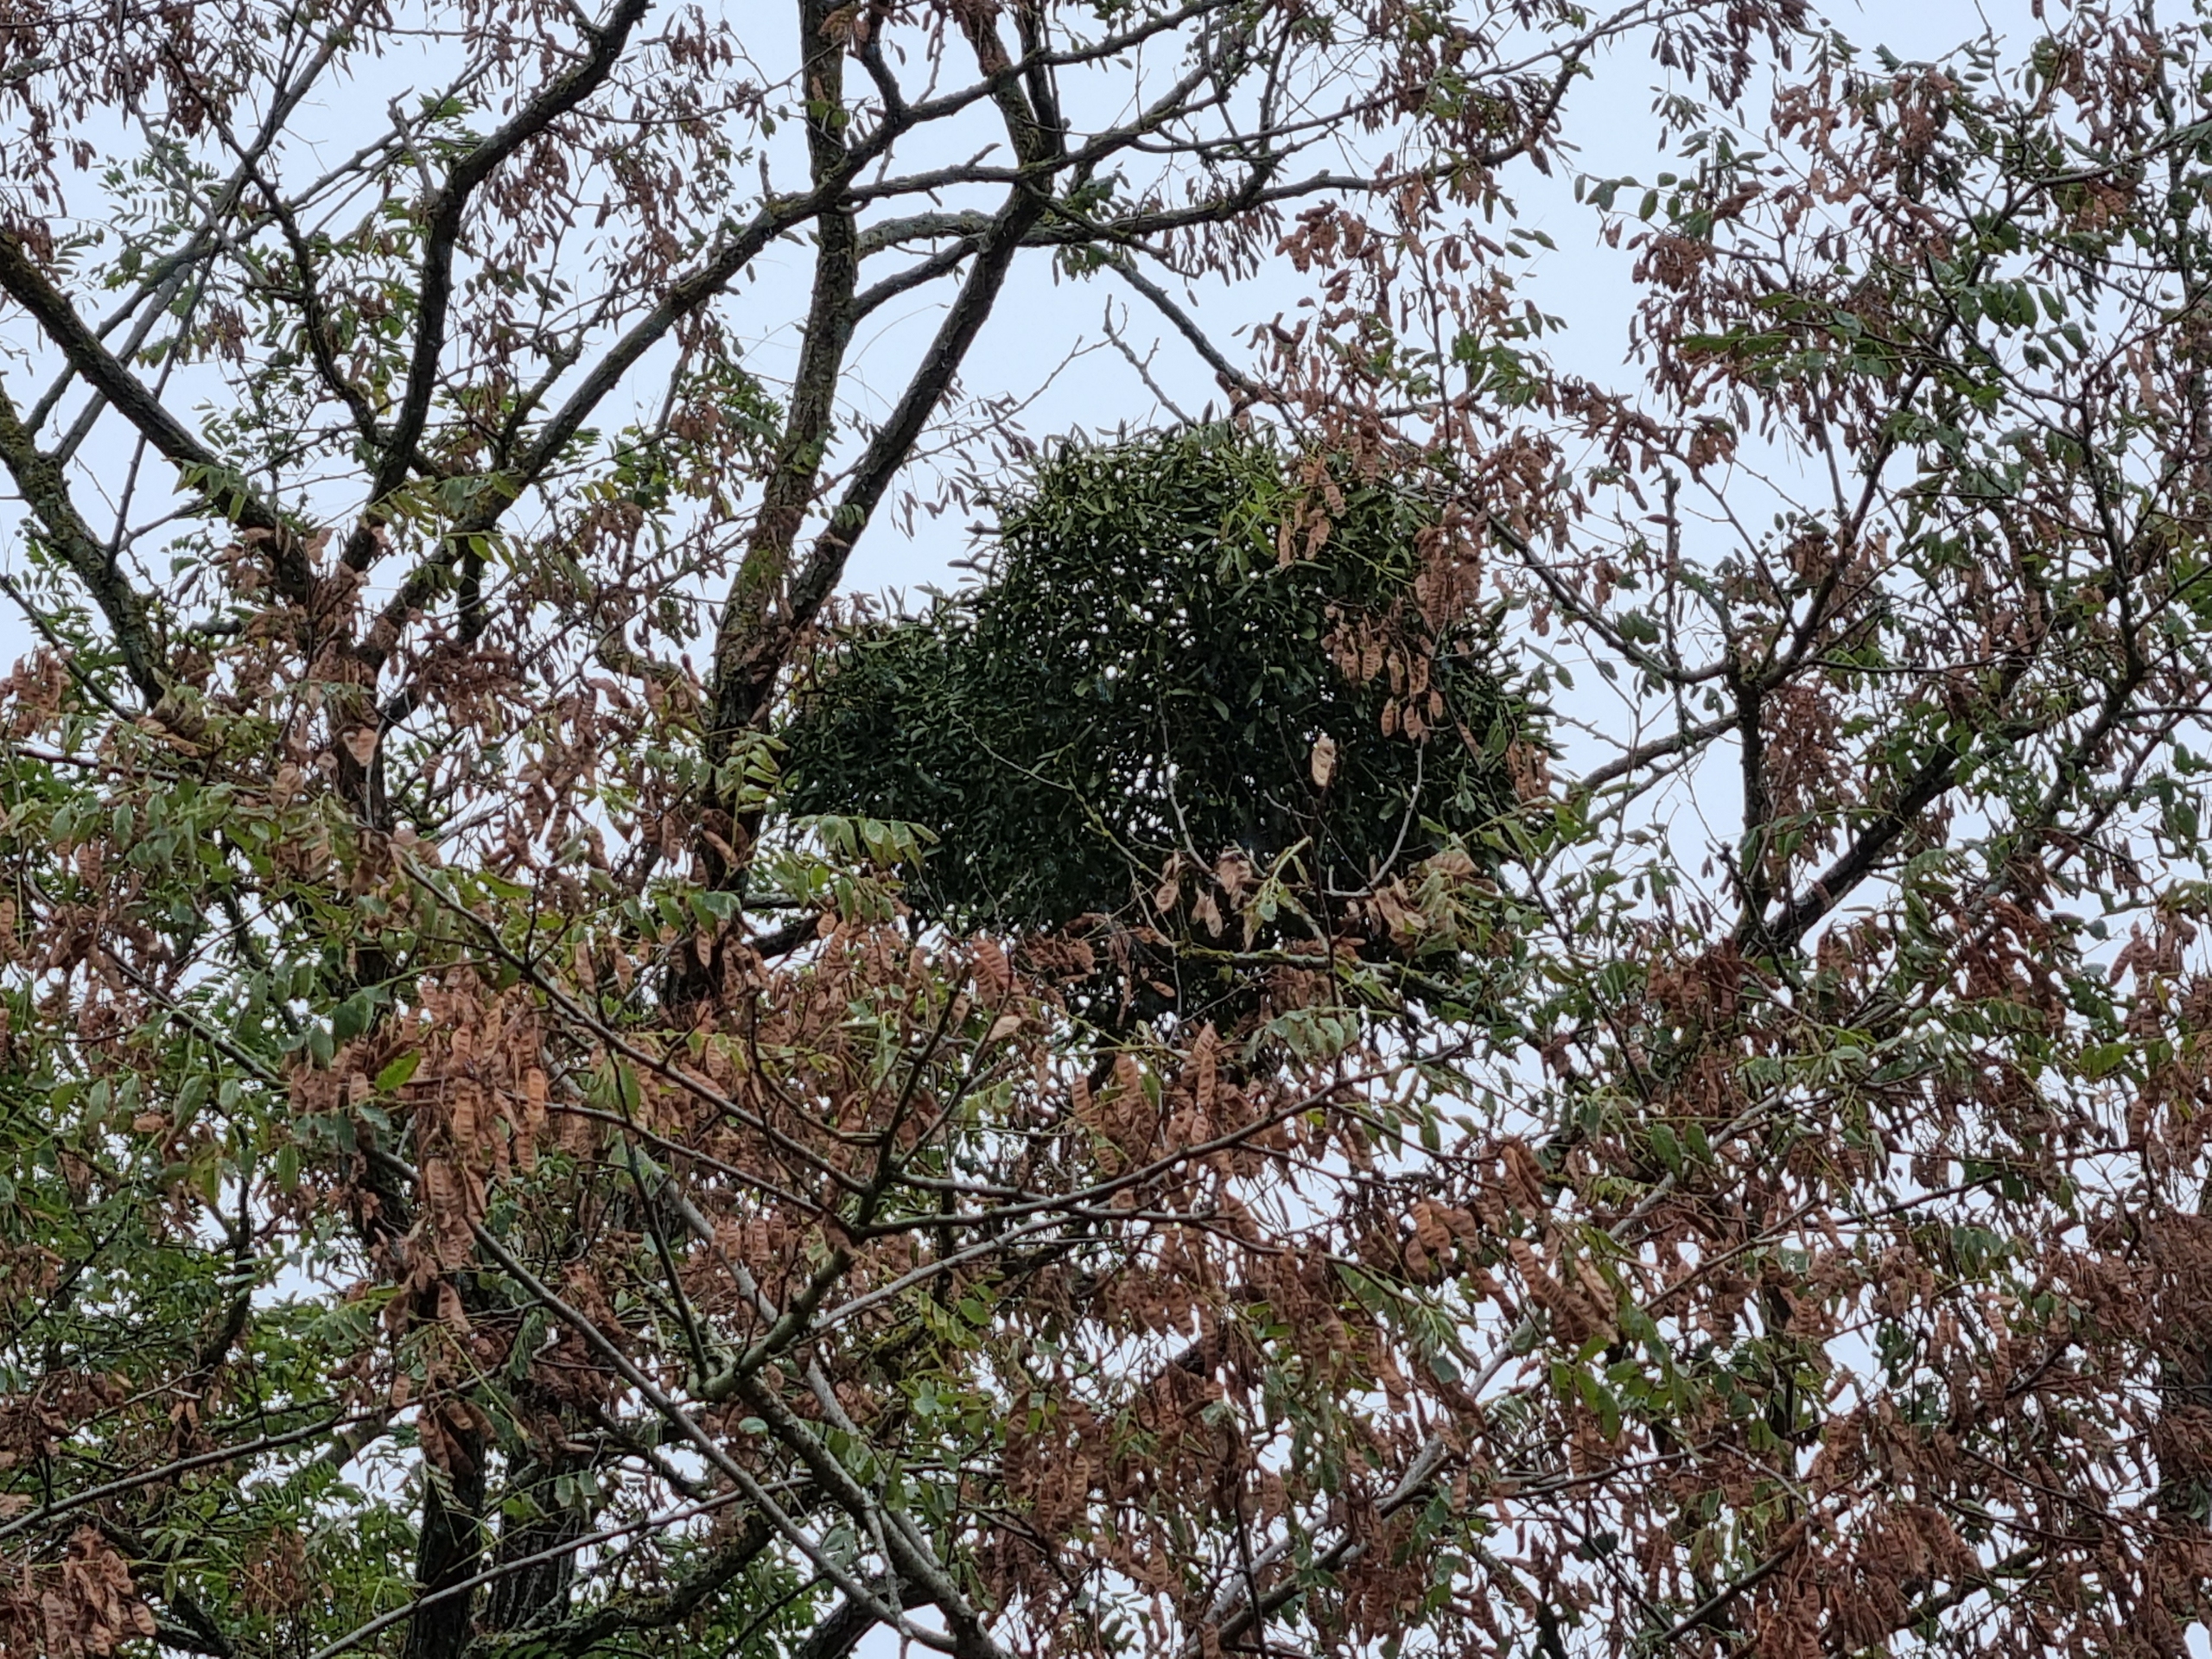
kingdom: Plantae
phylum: Tracheophyta
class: Magnoliopsida
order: Santalales
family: Viscaceae
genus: Viscum
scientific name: Viscum album
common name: Mistelten
